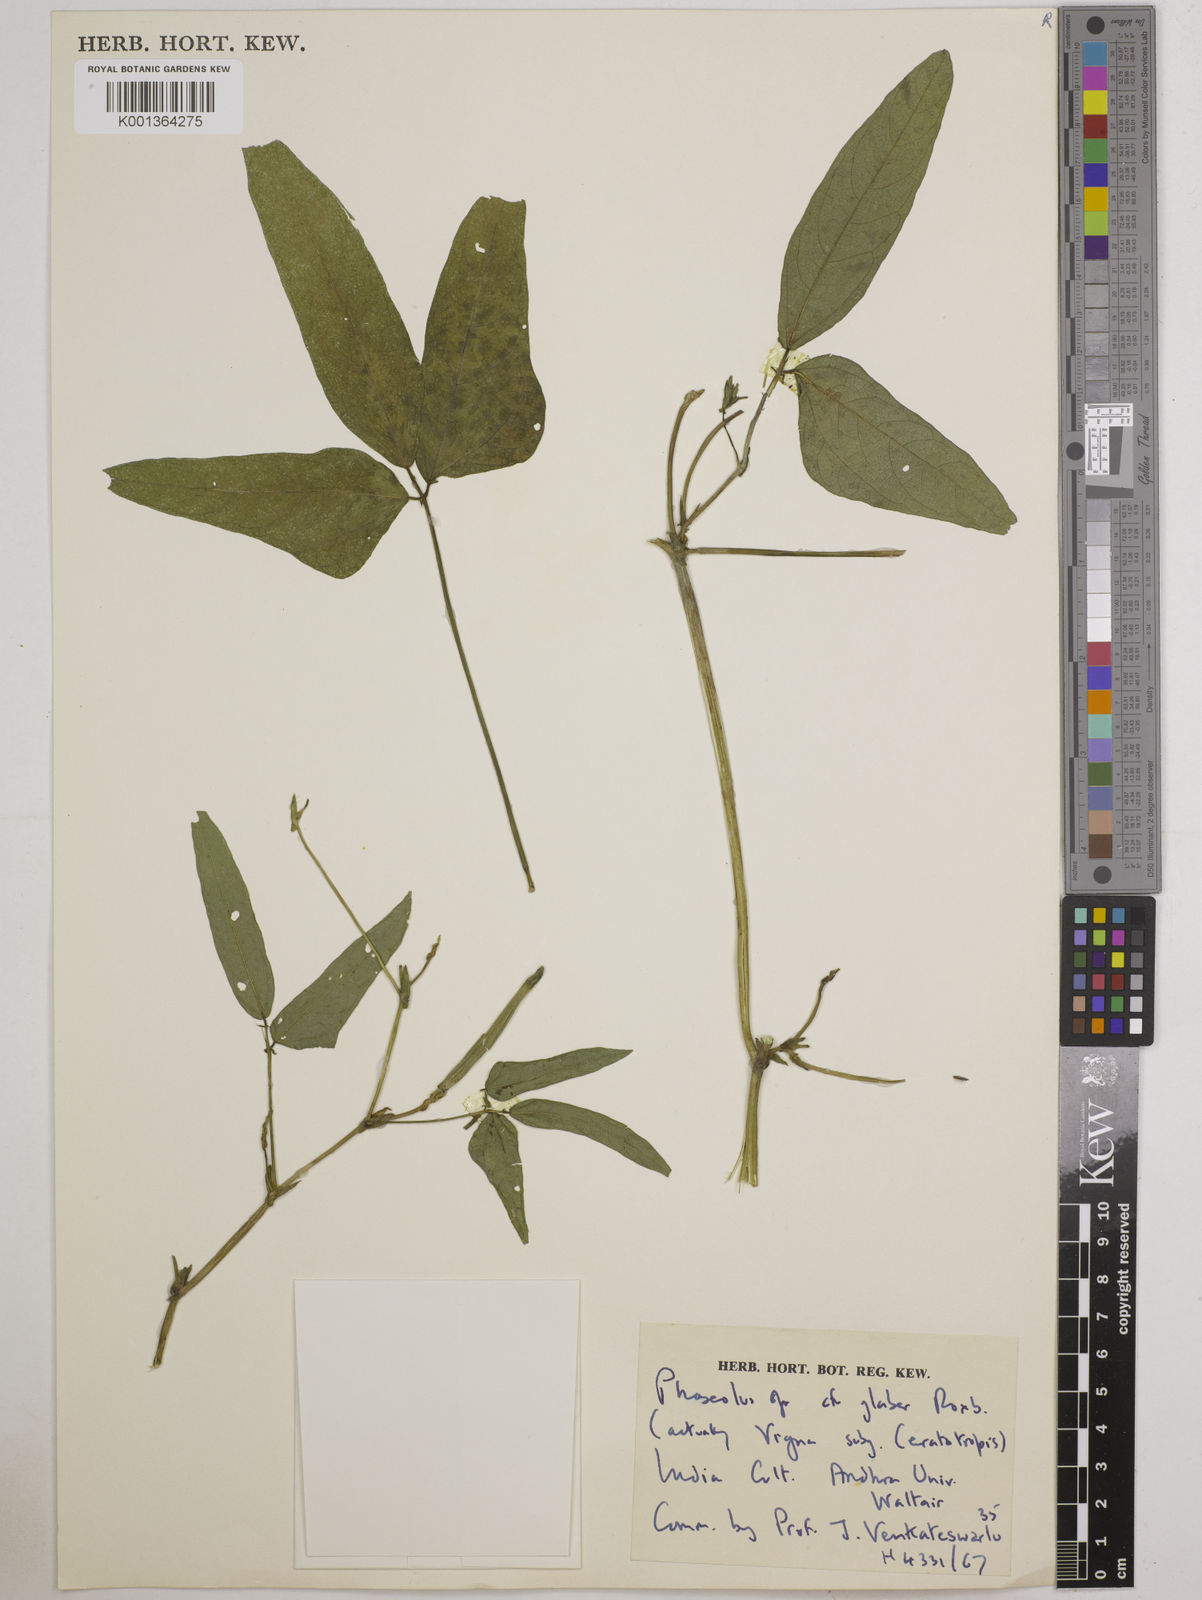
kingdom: Plantae
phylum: Tracheophyta
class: Magnoliopsida
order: Fabales
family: Fabaceae
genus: Vigna
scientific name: Vigna
